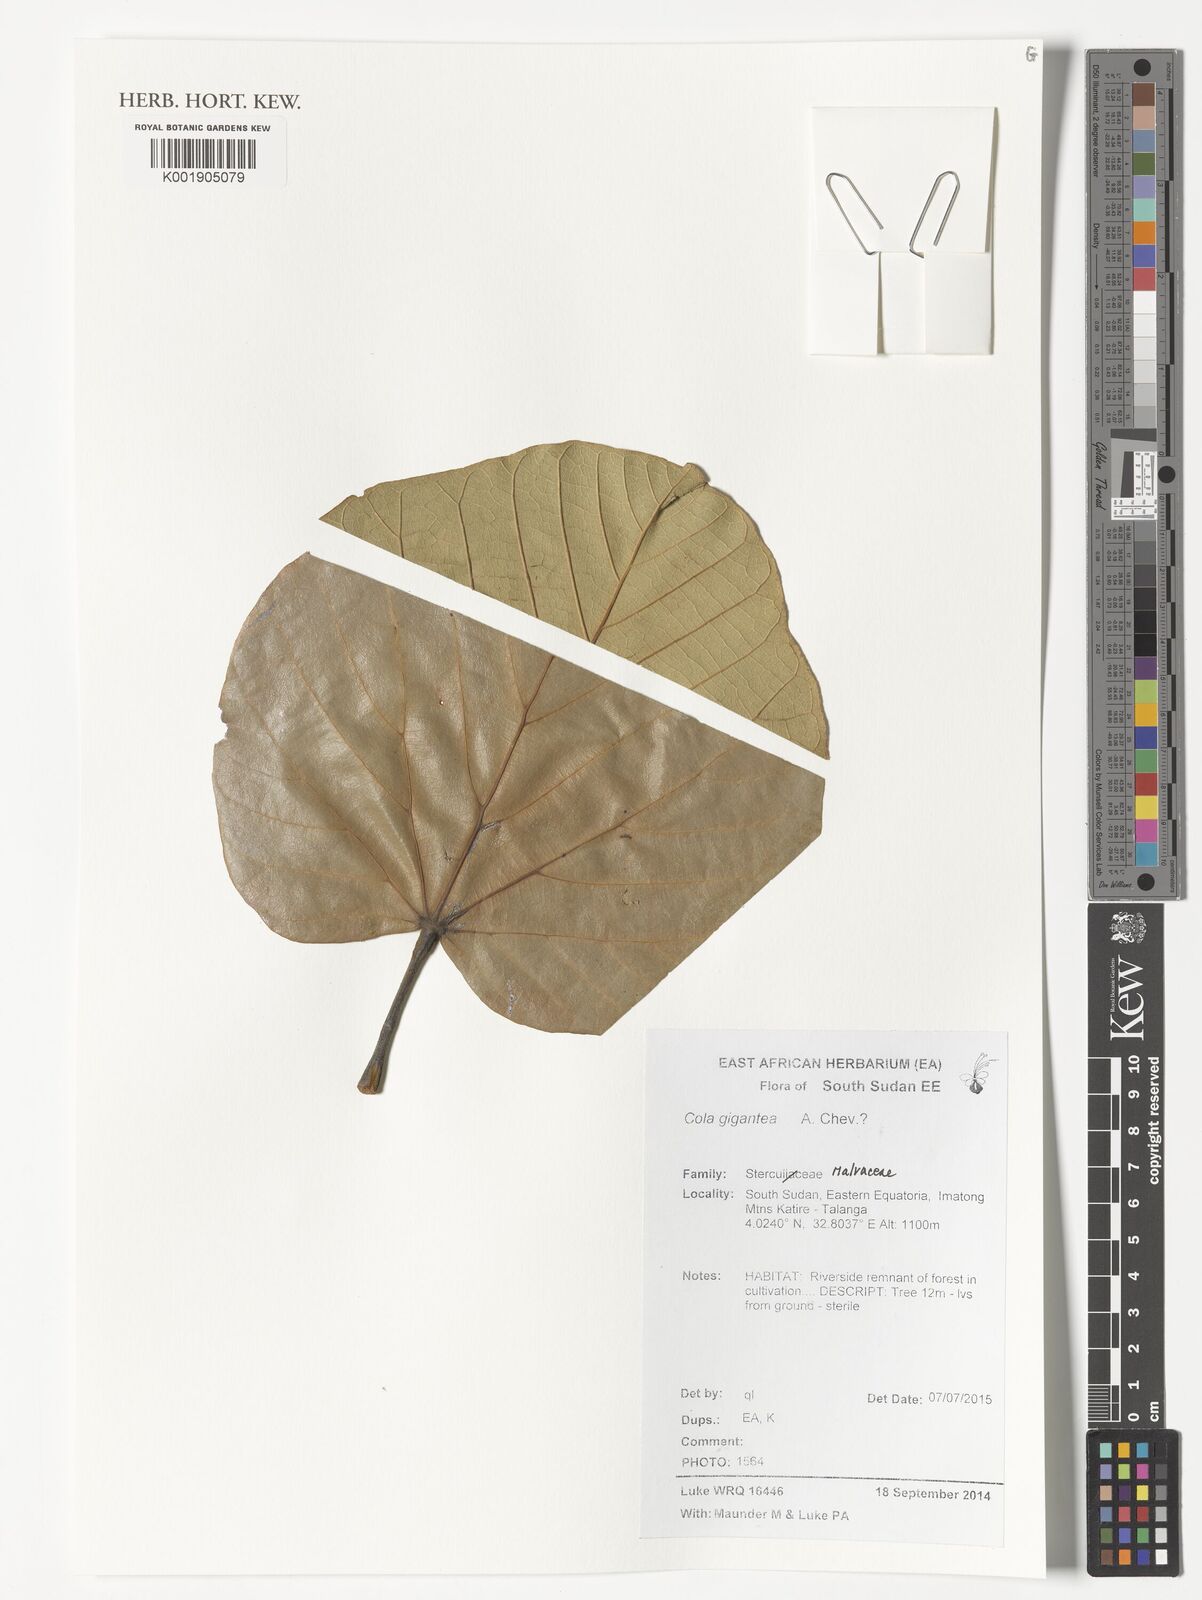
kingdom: Plantae
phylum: Tracheophyta
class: Magnoliopsida
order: Malvales
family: Malvaceae
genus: Cola
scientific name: Cola gigantea
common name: Giant cola
